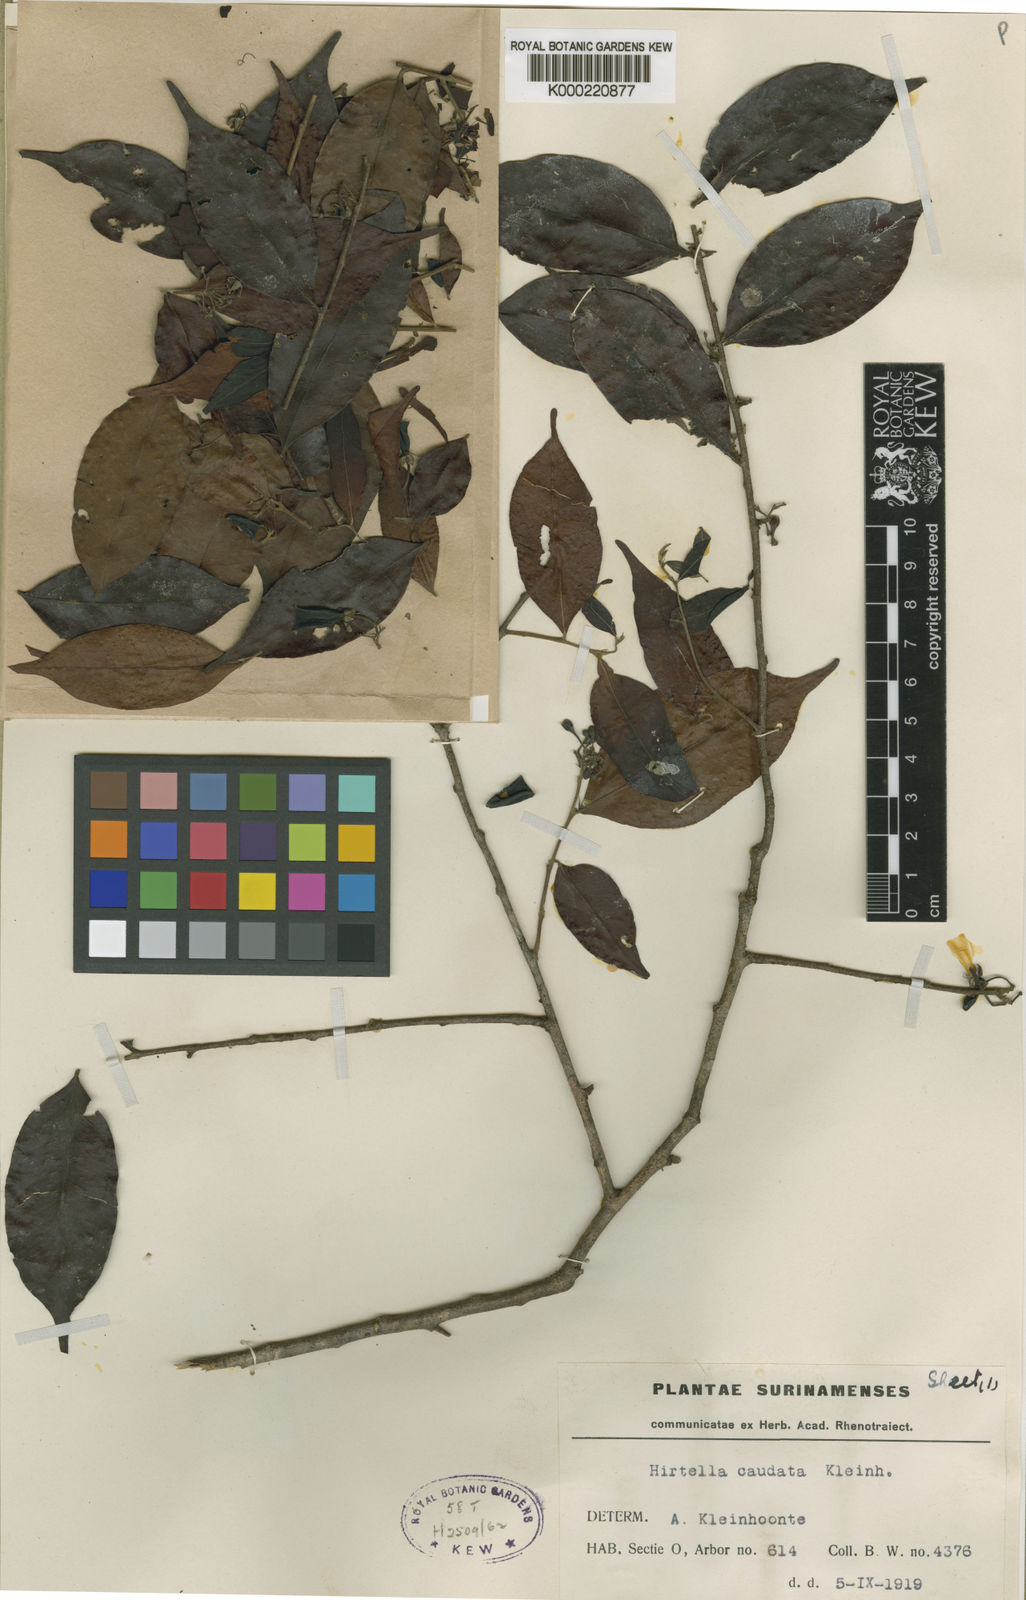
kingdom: Plantae
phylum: Tracheophyta
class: Magnoliopsida
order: Malpighiales
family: Chrysobalanaceae
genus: Hirtella
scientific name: Hirtella bicornis
